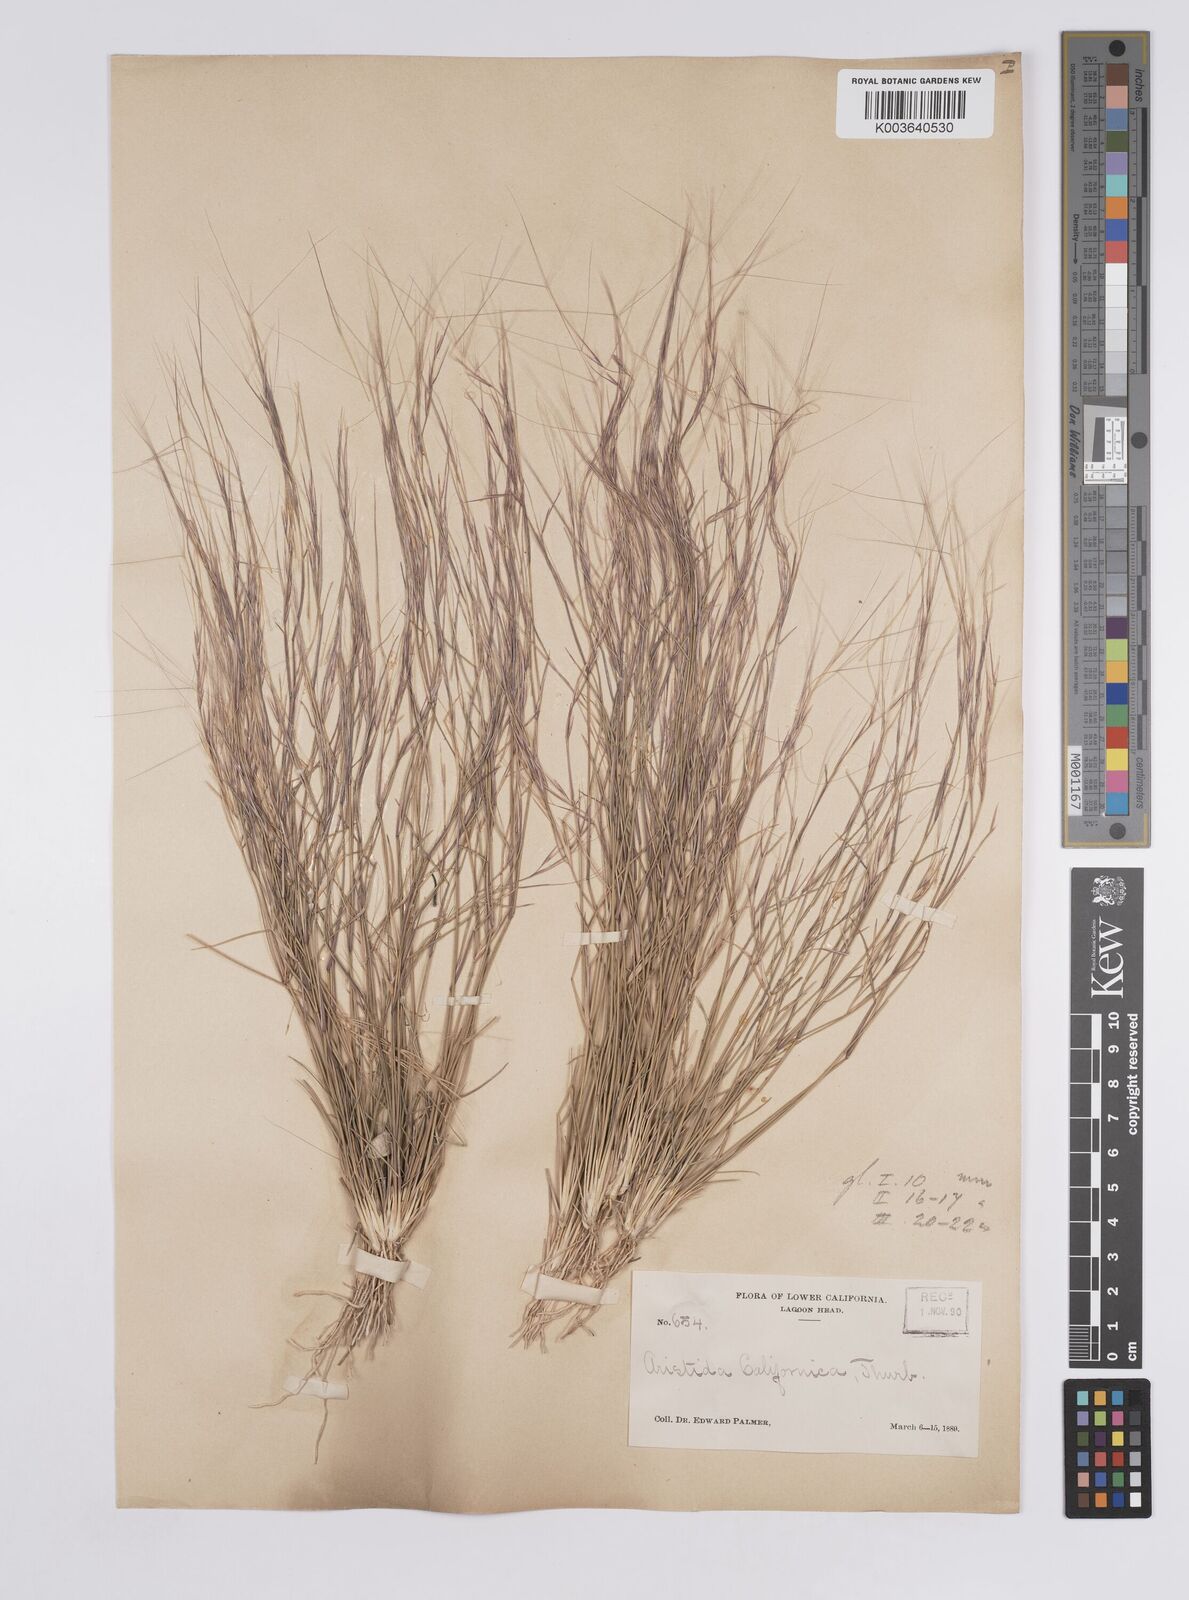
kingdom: Plantae
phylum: Tracheophyta
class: Liliopsida
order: Poales
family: Poaceae
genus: Aristida
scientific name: Aristida californica
